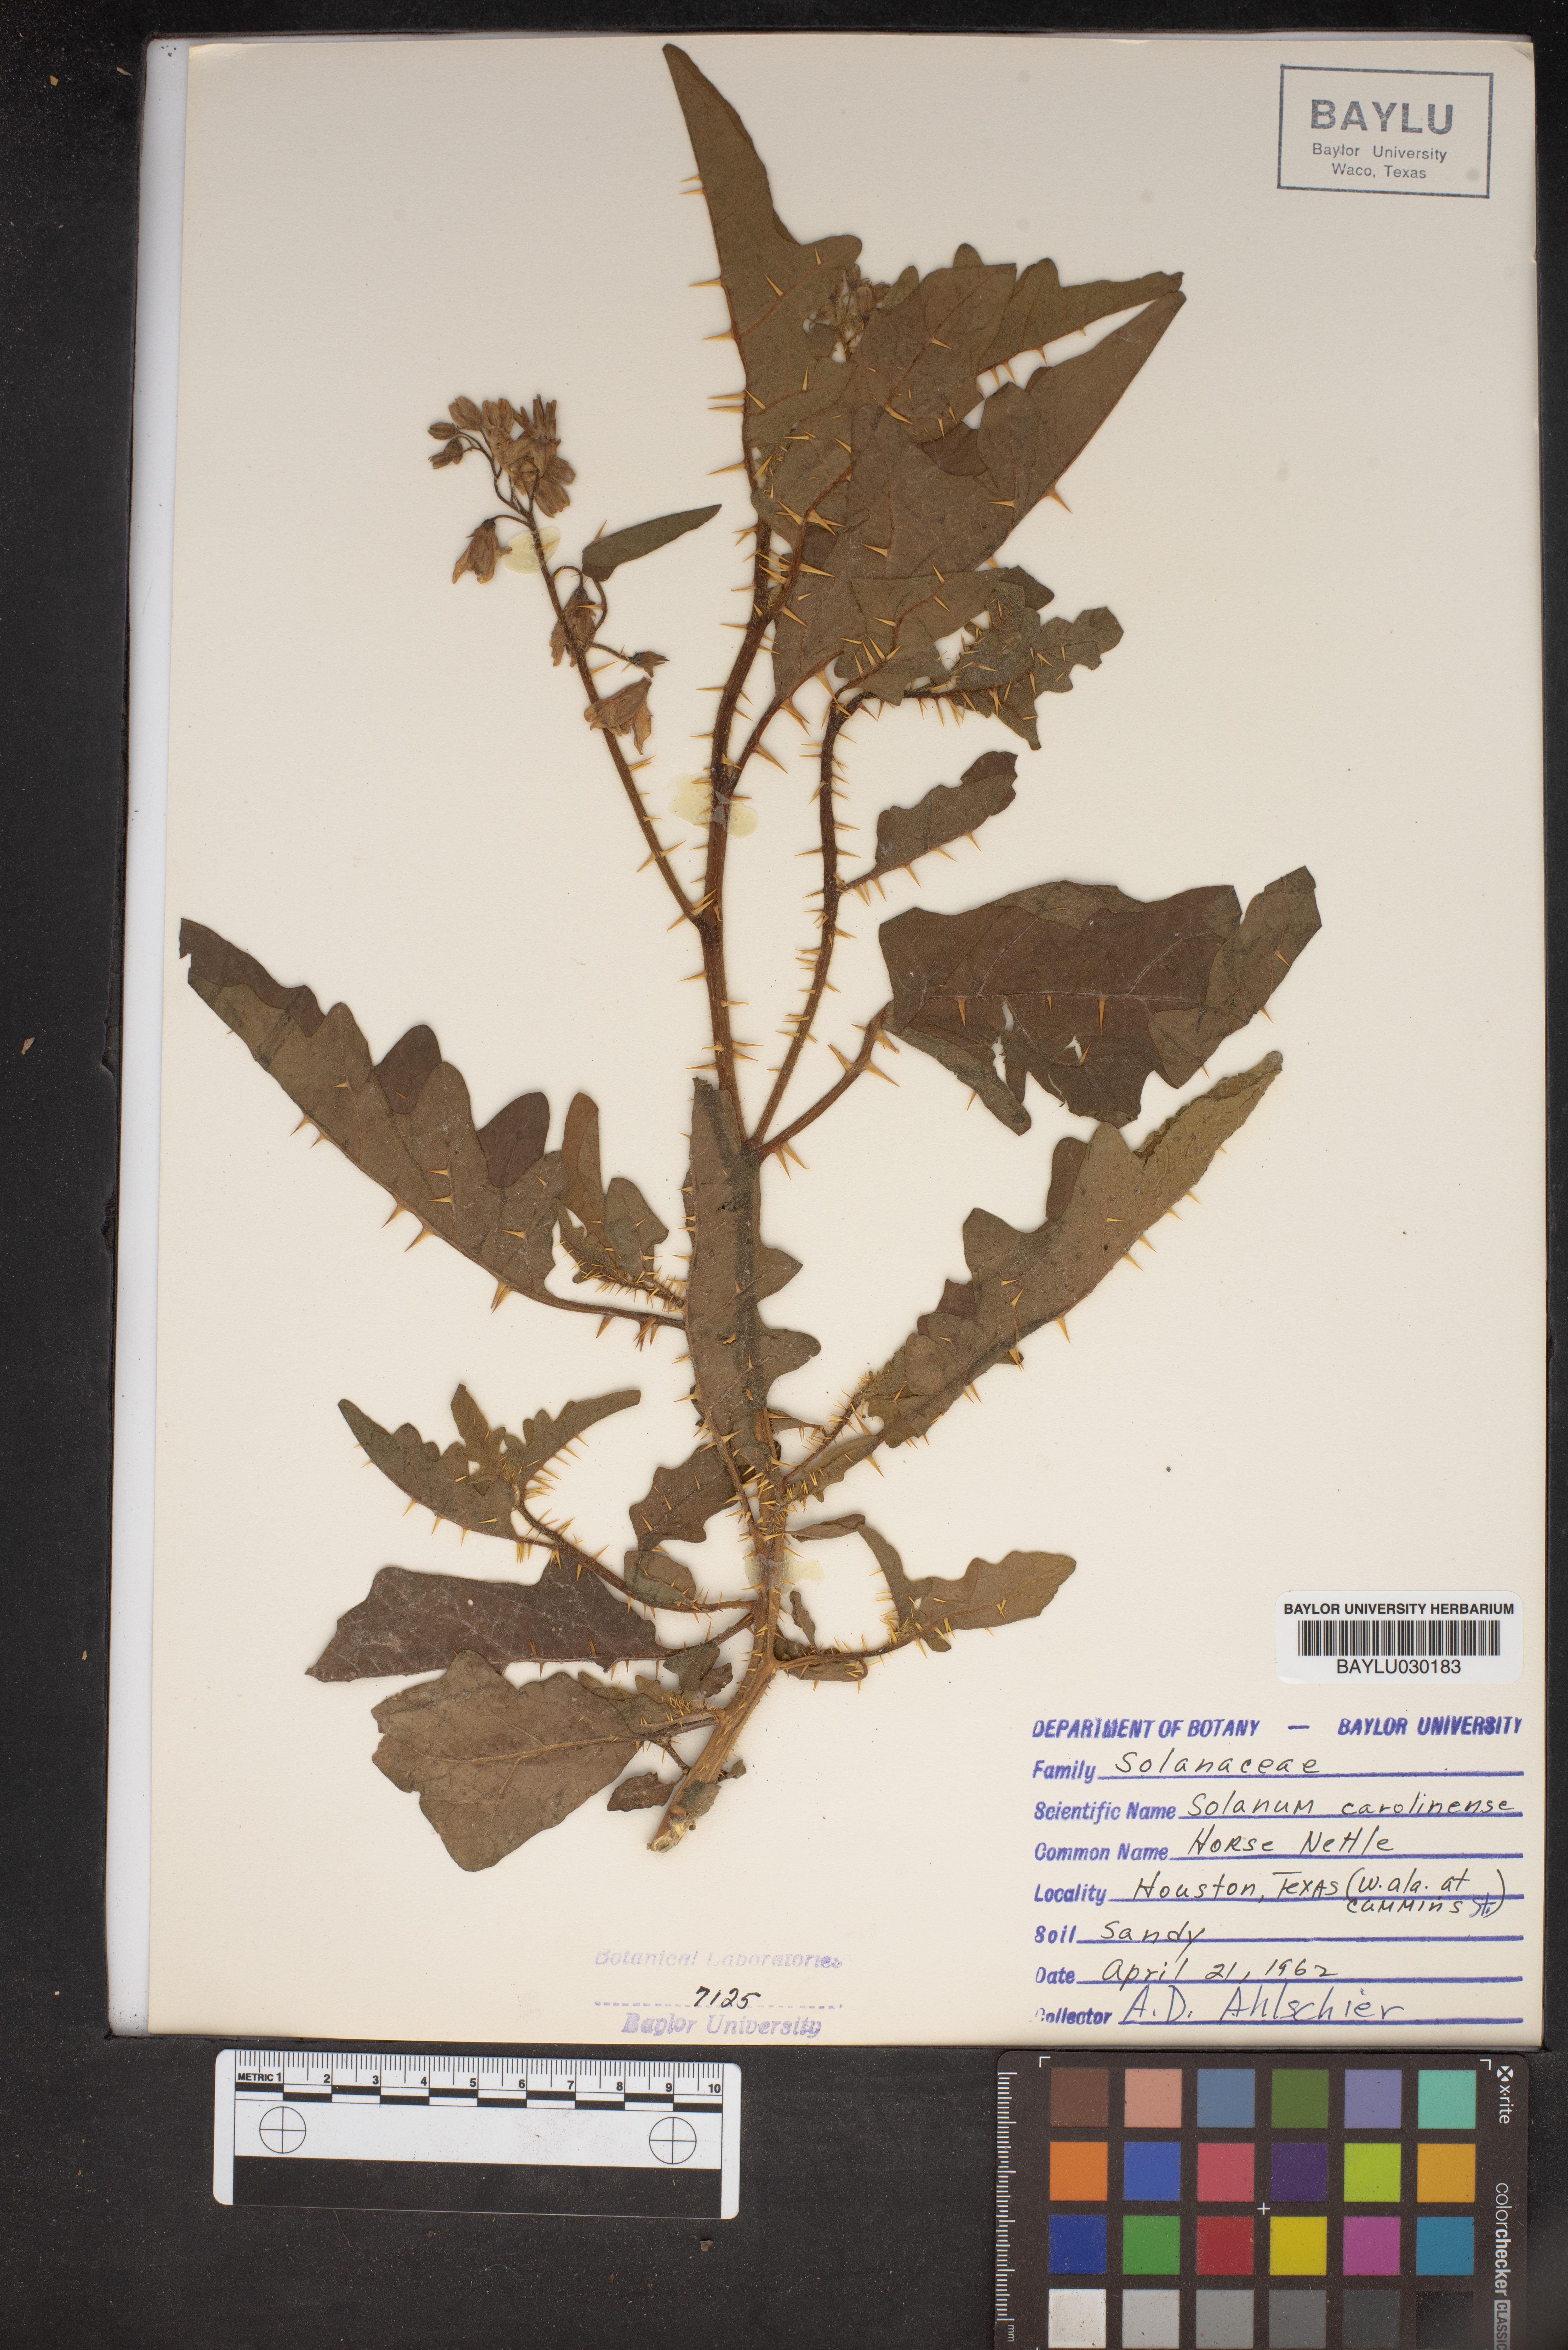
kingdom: Plantae
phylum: Tracheophyta
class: Magnoliopsida
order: Solanales
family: Solanaceae
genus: Solanum
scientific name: Solanum carolinense
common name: Horse-nettle
